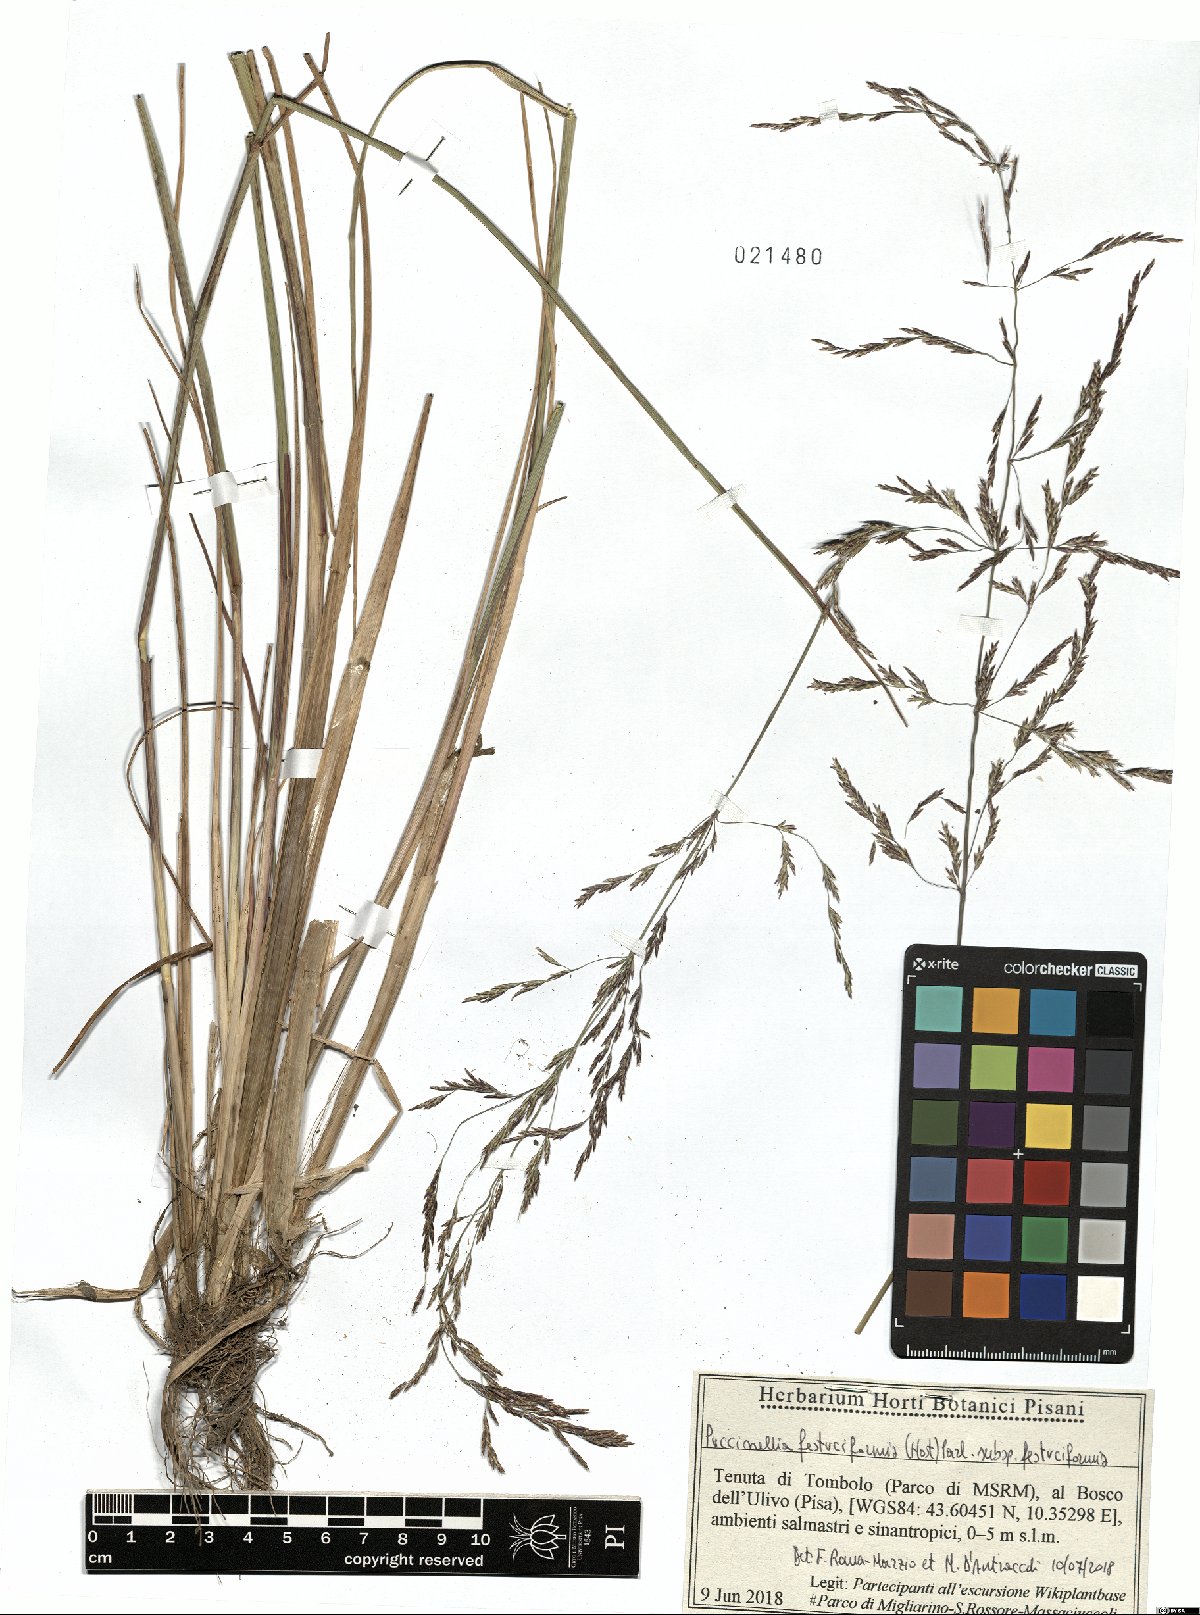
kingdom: Plantae
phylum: Tracheophyta
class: Liliopsida
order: Poales
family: Poaceae
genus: Puccinellia
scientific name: Puccinellia festuciformis
